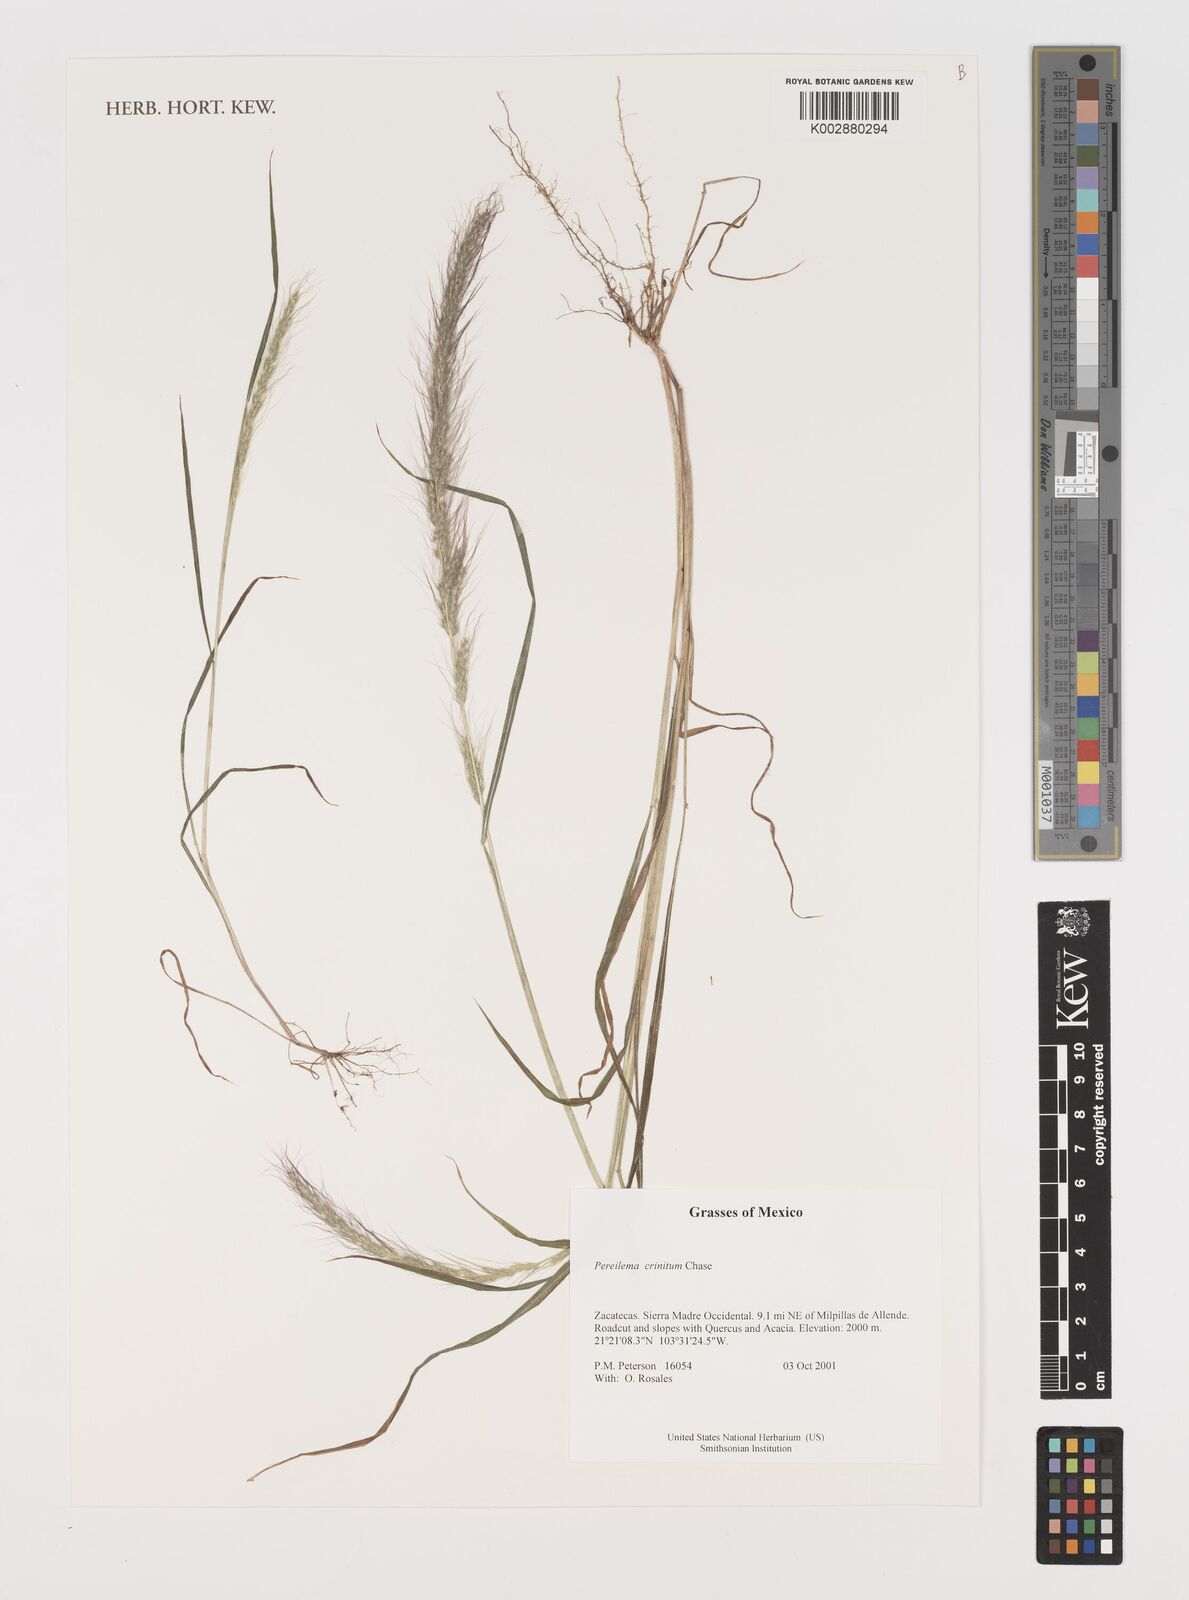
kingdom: Plantae
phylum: Tracheophyta
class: Liliopsida
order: Poales
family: Poaceae
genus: Muhlenbergia
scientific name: Muhlenbergia pereilema
